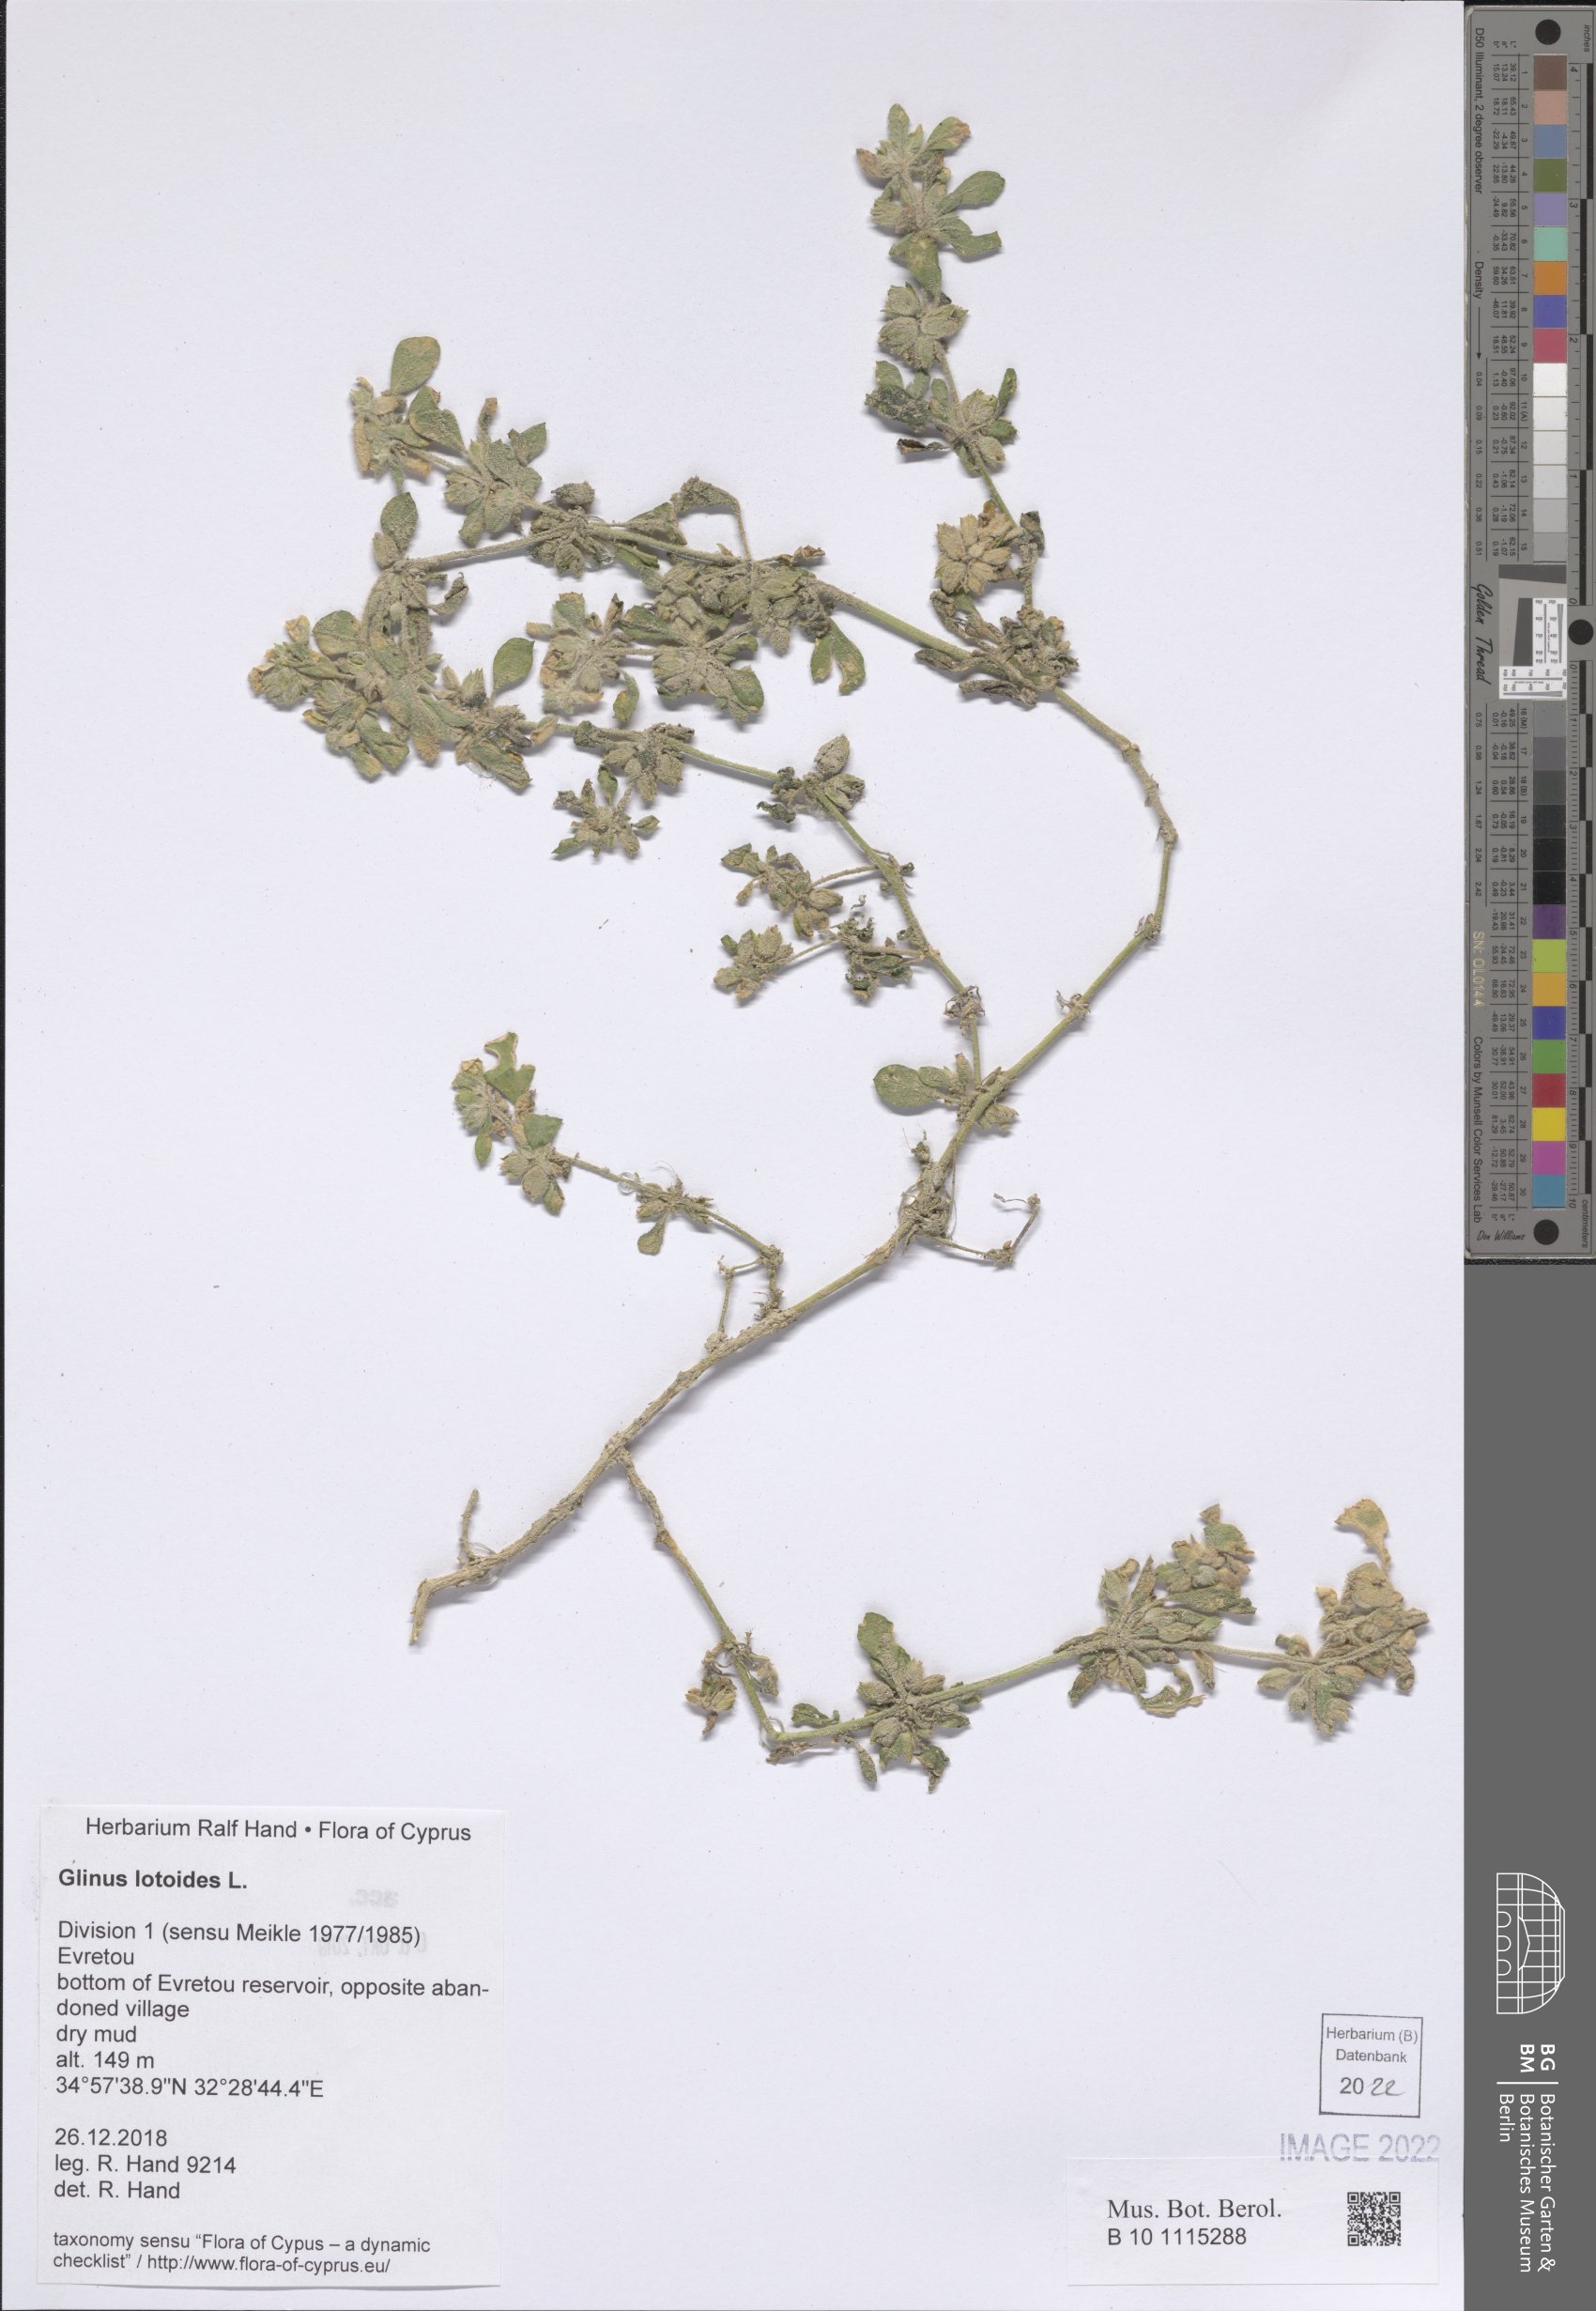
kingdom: Plantae
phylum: Tracheophyta
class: Magnoliopsida
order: Caryophyllales
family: Molluginaceae
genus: Glinus
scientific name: Glinus lotoides
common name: Lotus sweetjuice
